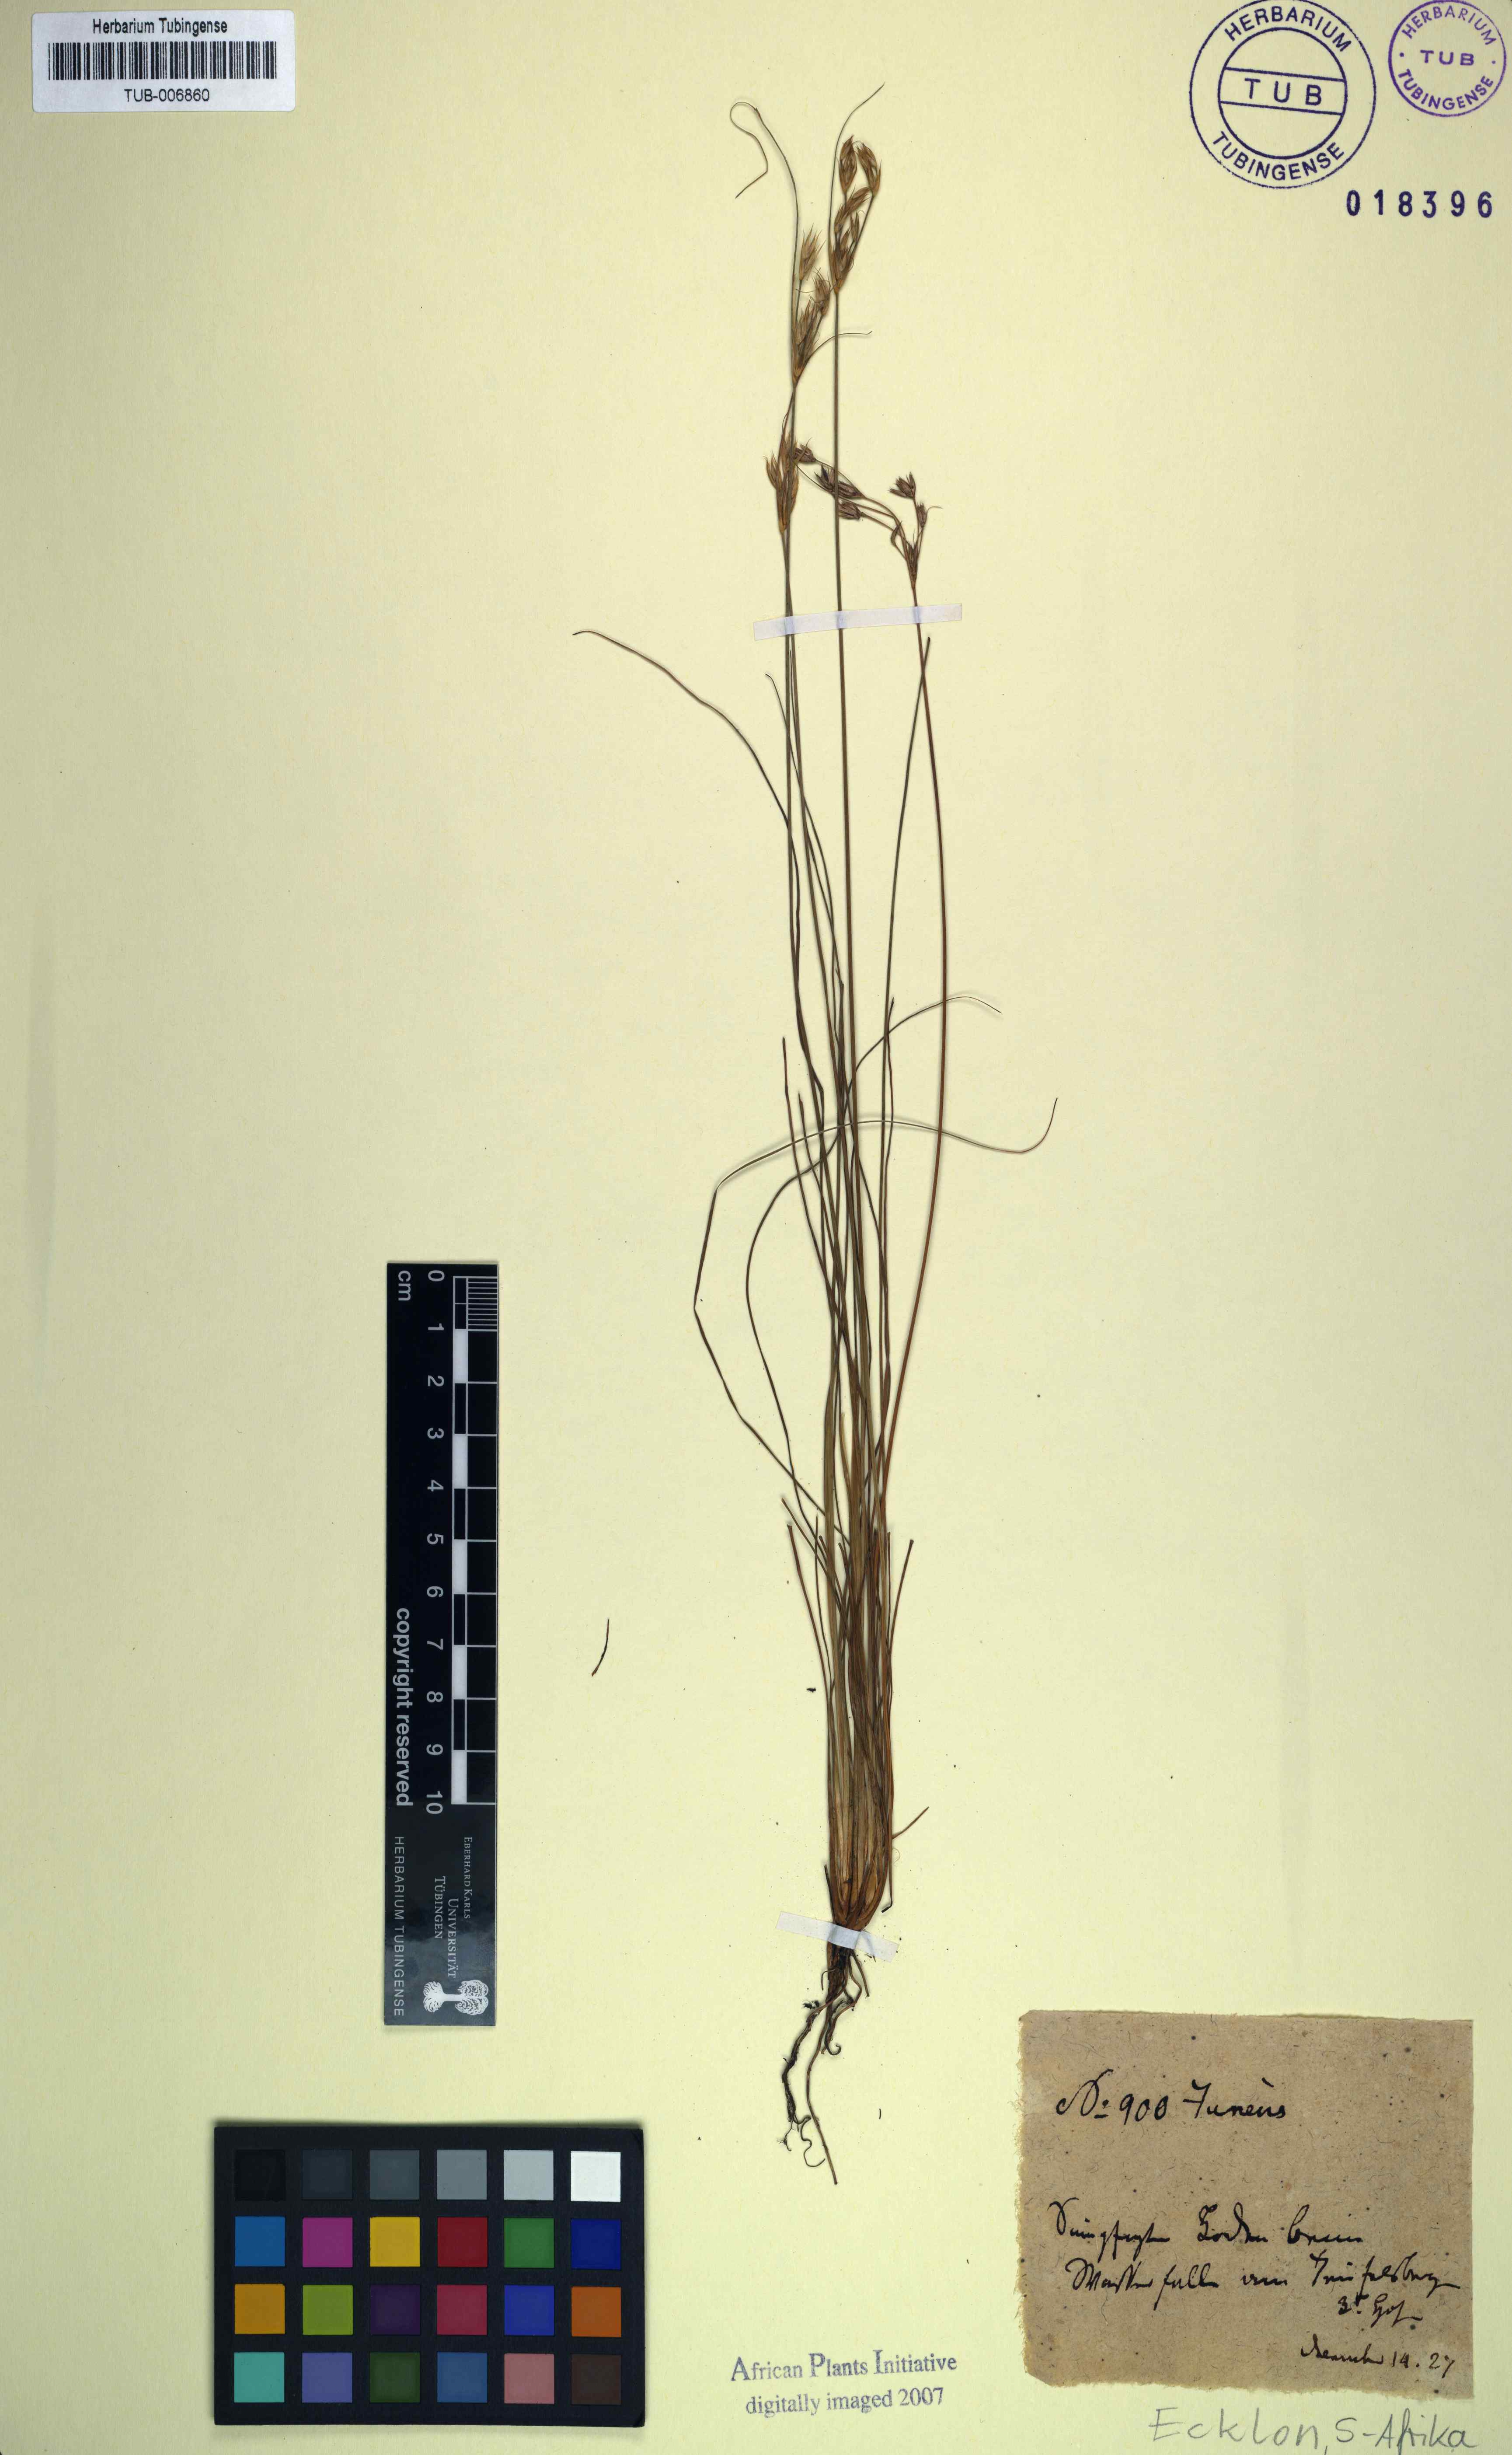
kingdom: Plantae
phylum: Tracheophyta
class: Liliopsida
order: Poales
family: Juncaceae
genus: Juncus
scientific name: Juncus lomatophyllus
